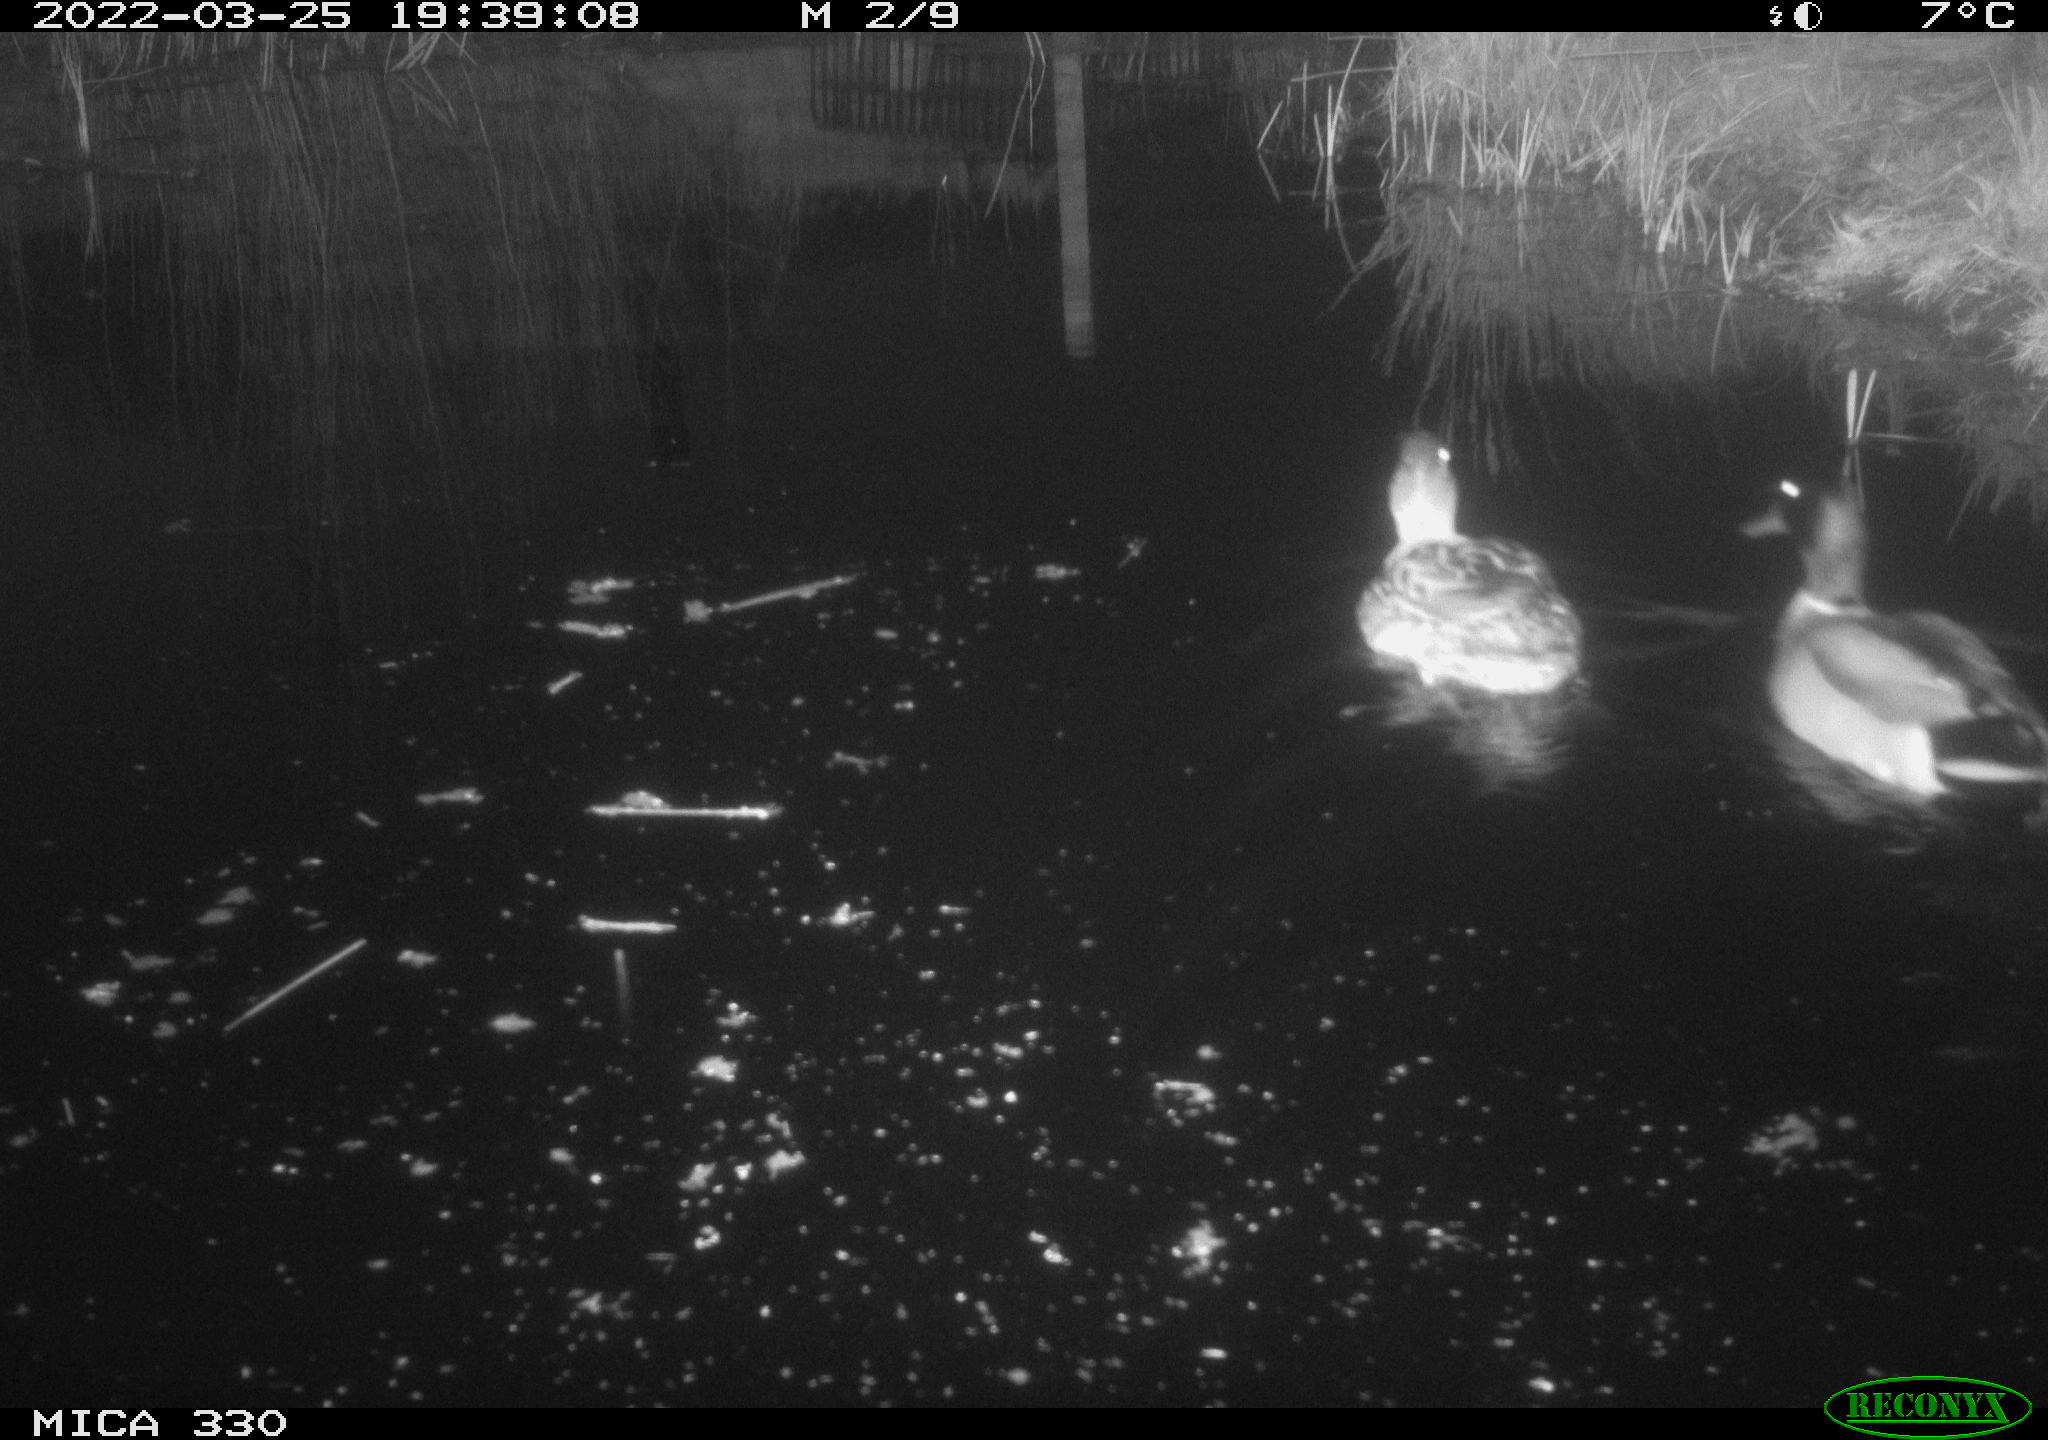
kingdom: Animalia
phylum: Chordata
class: Aves
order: Anseriformes
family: Anatidae
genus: Anas
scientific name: Anas platyrhynchos
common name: Mallard
